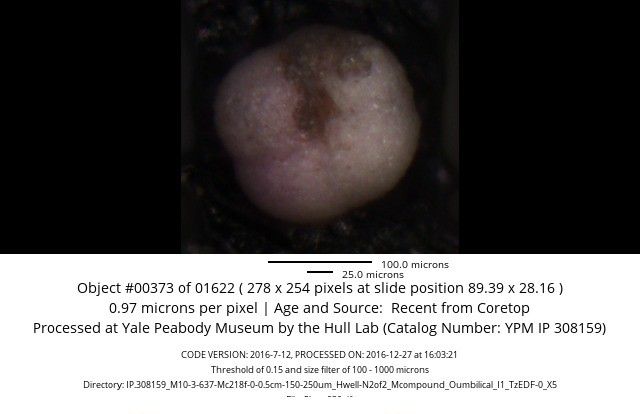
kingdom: Chromista
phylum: Foraminifera
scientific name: Foraminifera
